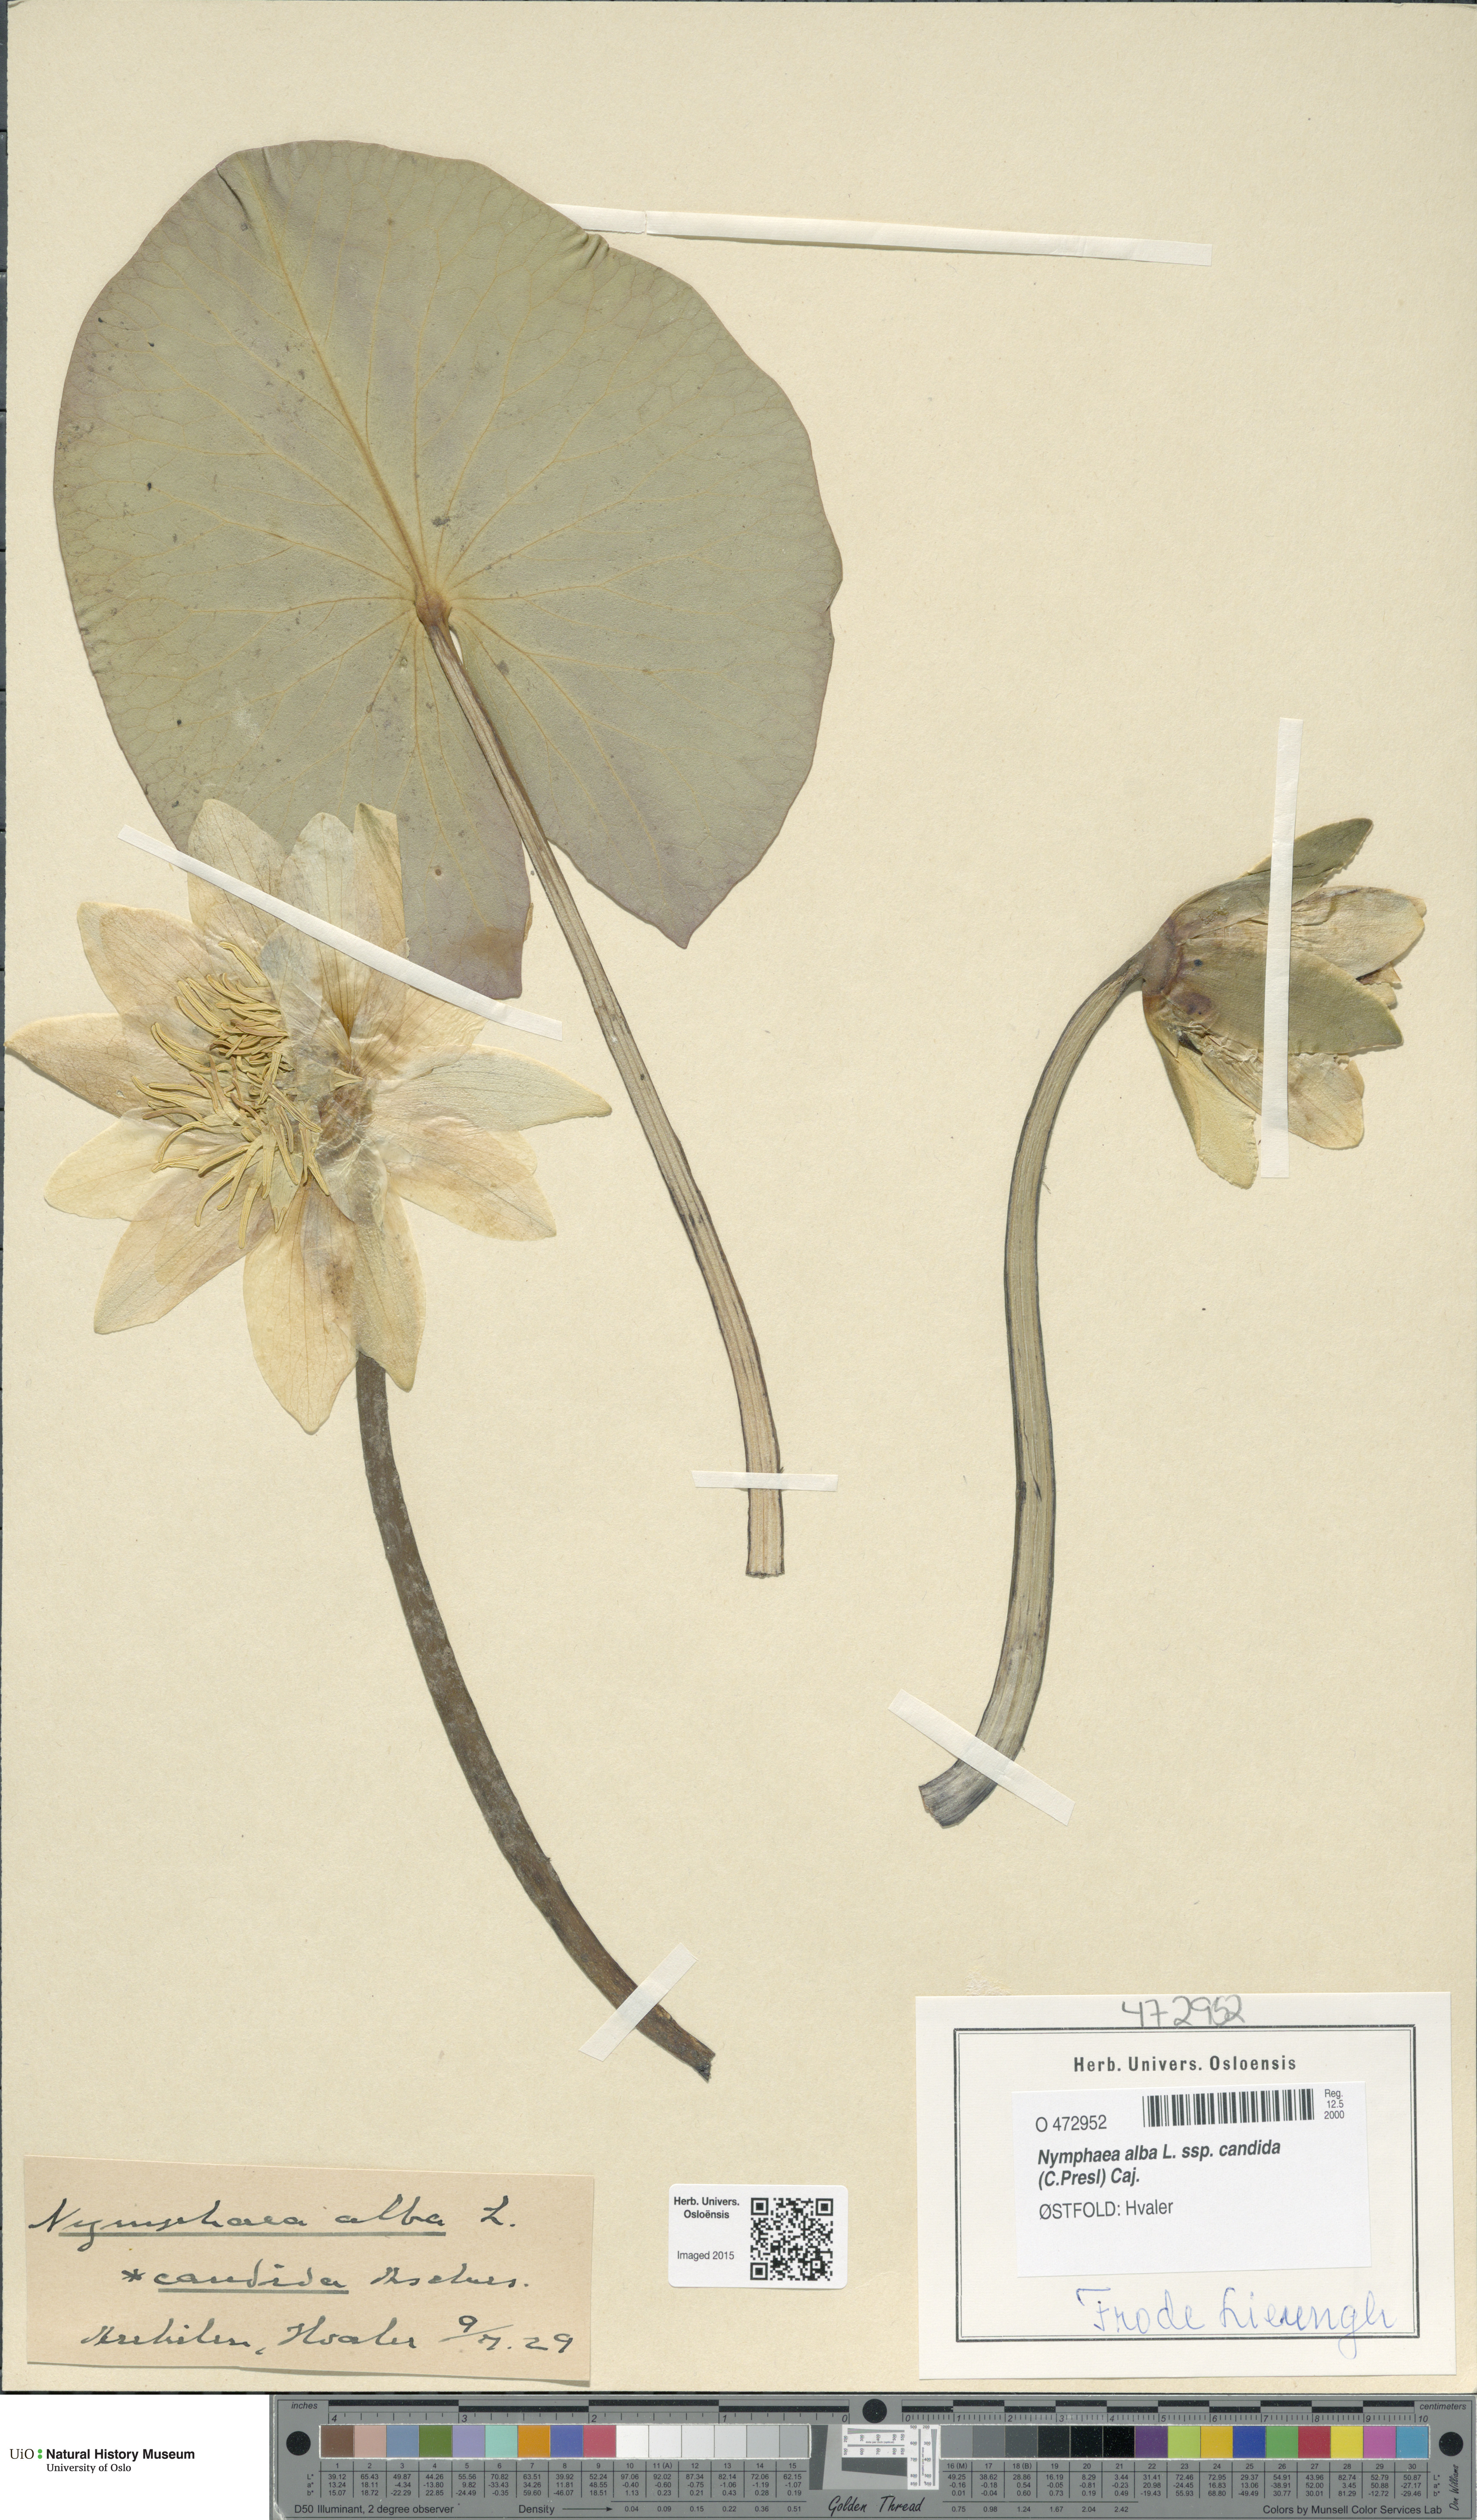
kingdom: Plantae
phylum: Tracheophyta
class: Magnoliopsida
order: Nymphaeales
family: Nymphaeaceae
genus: Nymphaea
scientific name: Nymphaea candida
